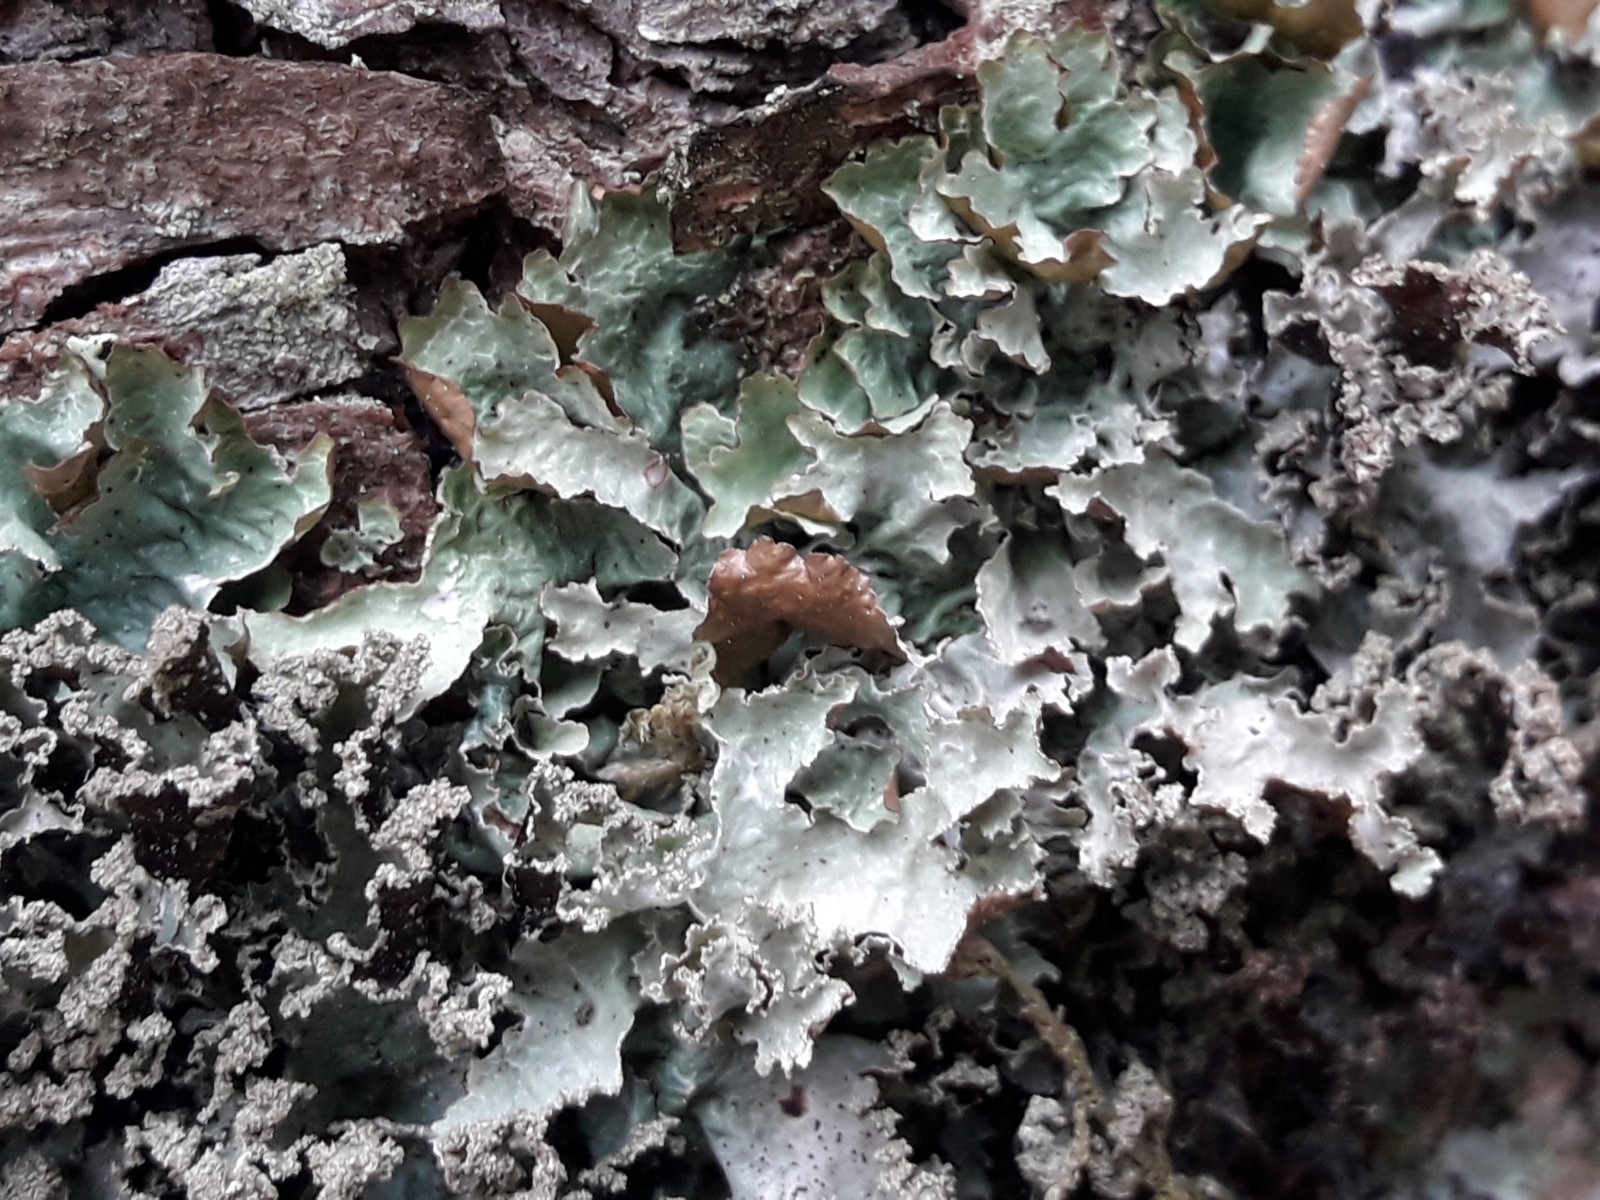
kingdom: Fungi
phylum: Ascomycota
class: Lecanoromycetes
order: Lecanorales
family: Parmeliaceae
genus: Platismatia
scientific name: Platismatia glauca
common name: blågrå papirlav
